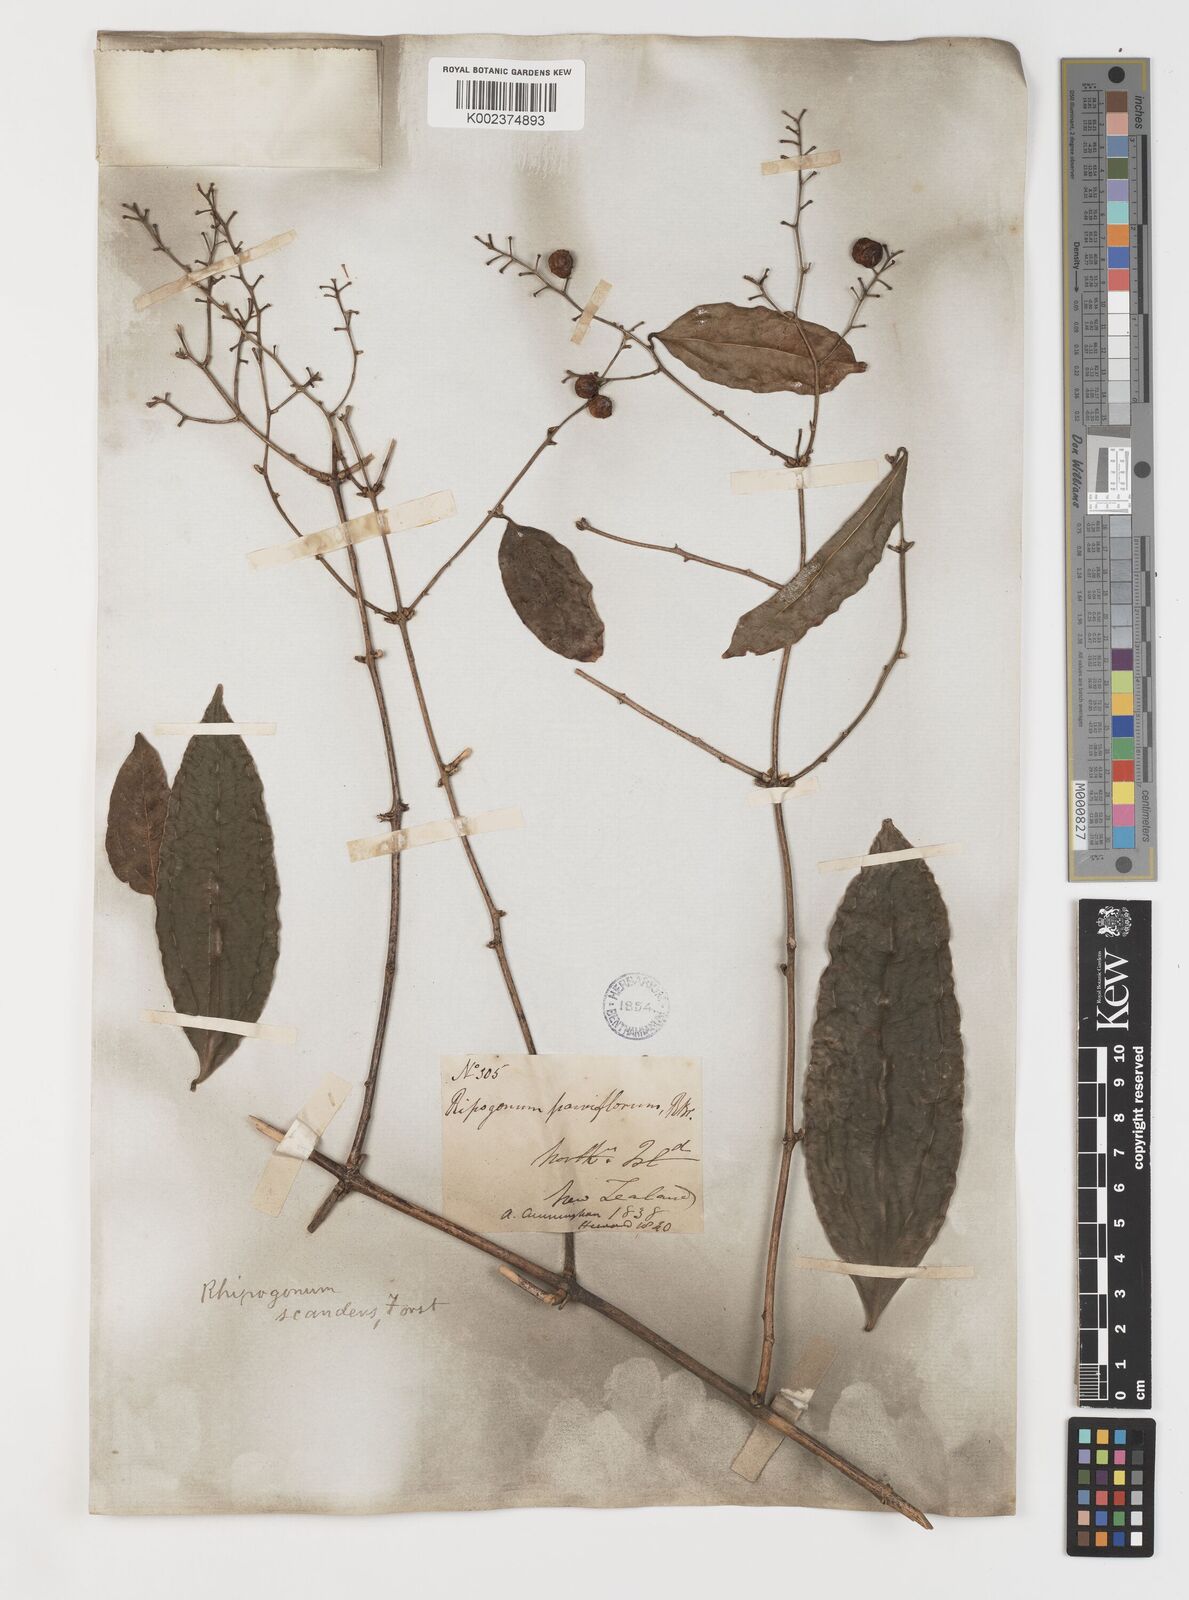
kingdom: Plantae
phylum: Tracheophyta
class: Liliopsida
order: Liliales
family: Ripogonaceae
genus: Ripogonum
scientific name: Ripogonum scandens
